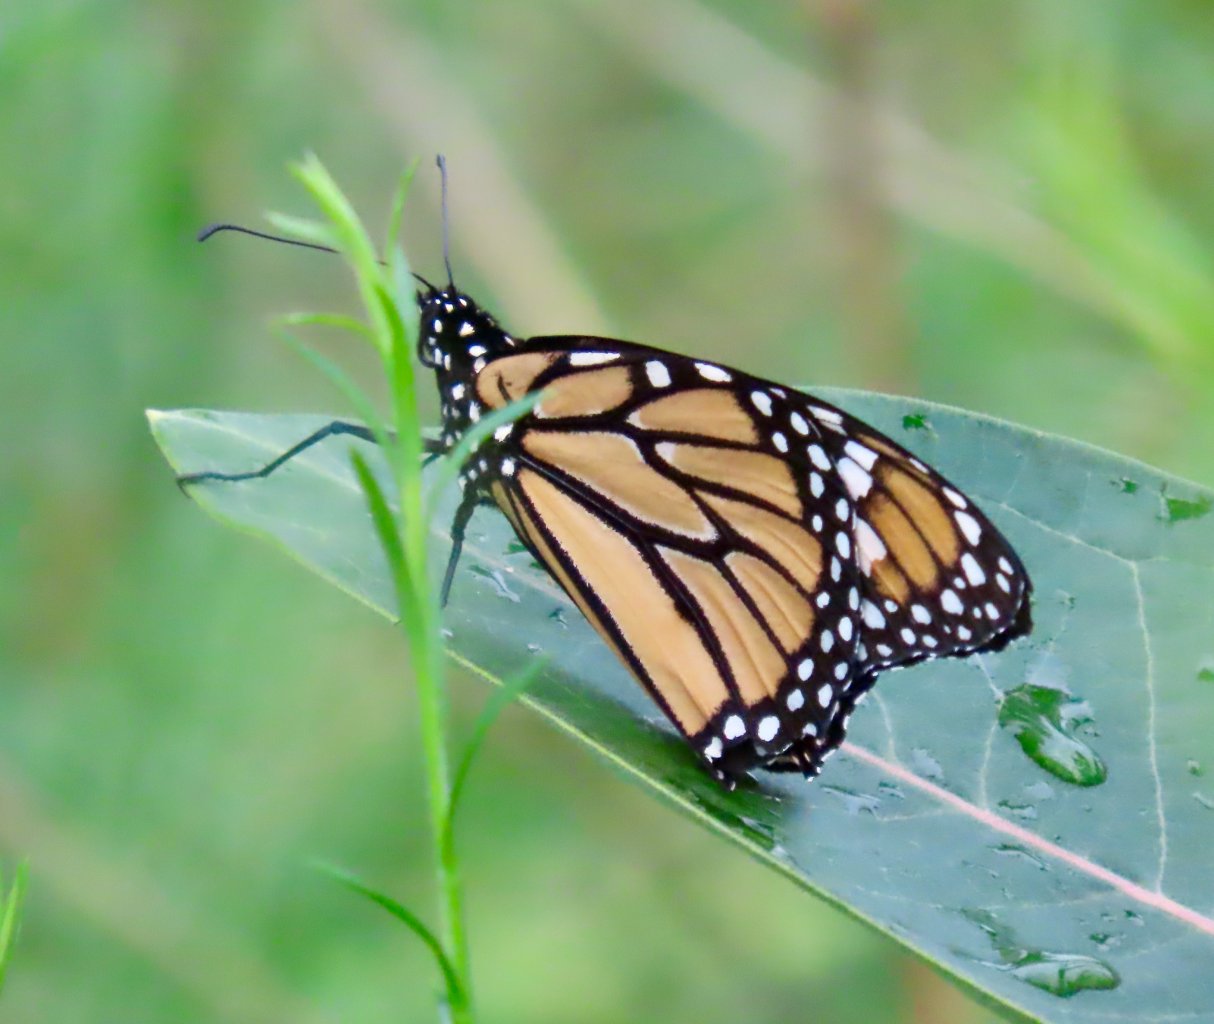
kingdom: Animalia
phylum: Arthropoda
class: Insecta
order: Lepidoptera
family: Nymphalidae
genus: Danaus
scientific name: Danaus plexippus
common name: Monarch
